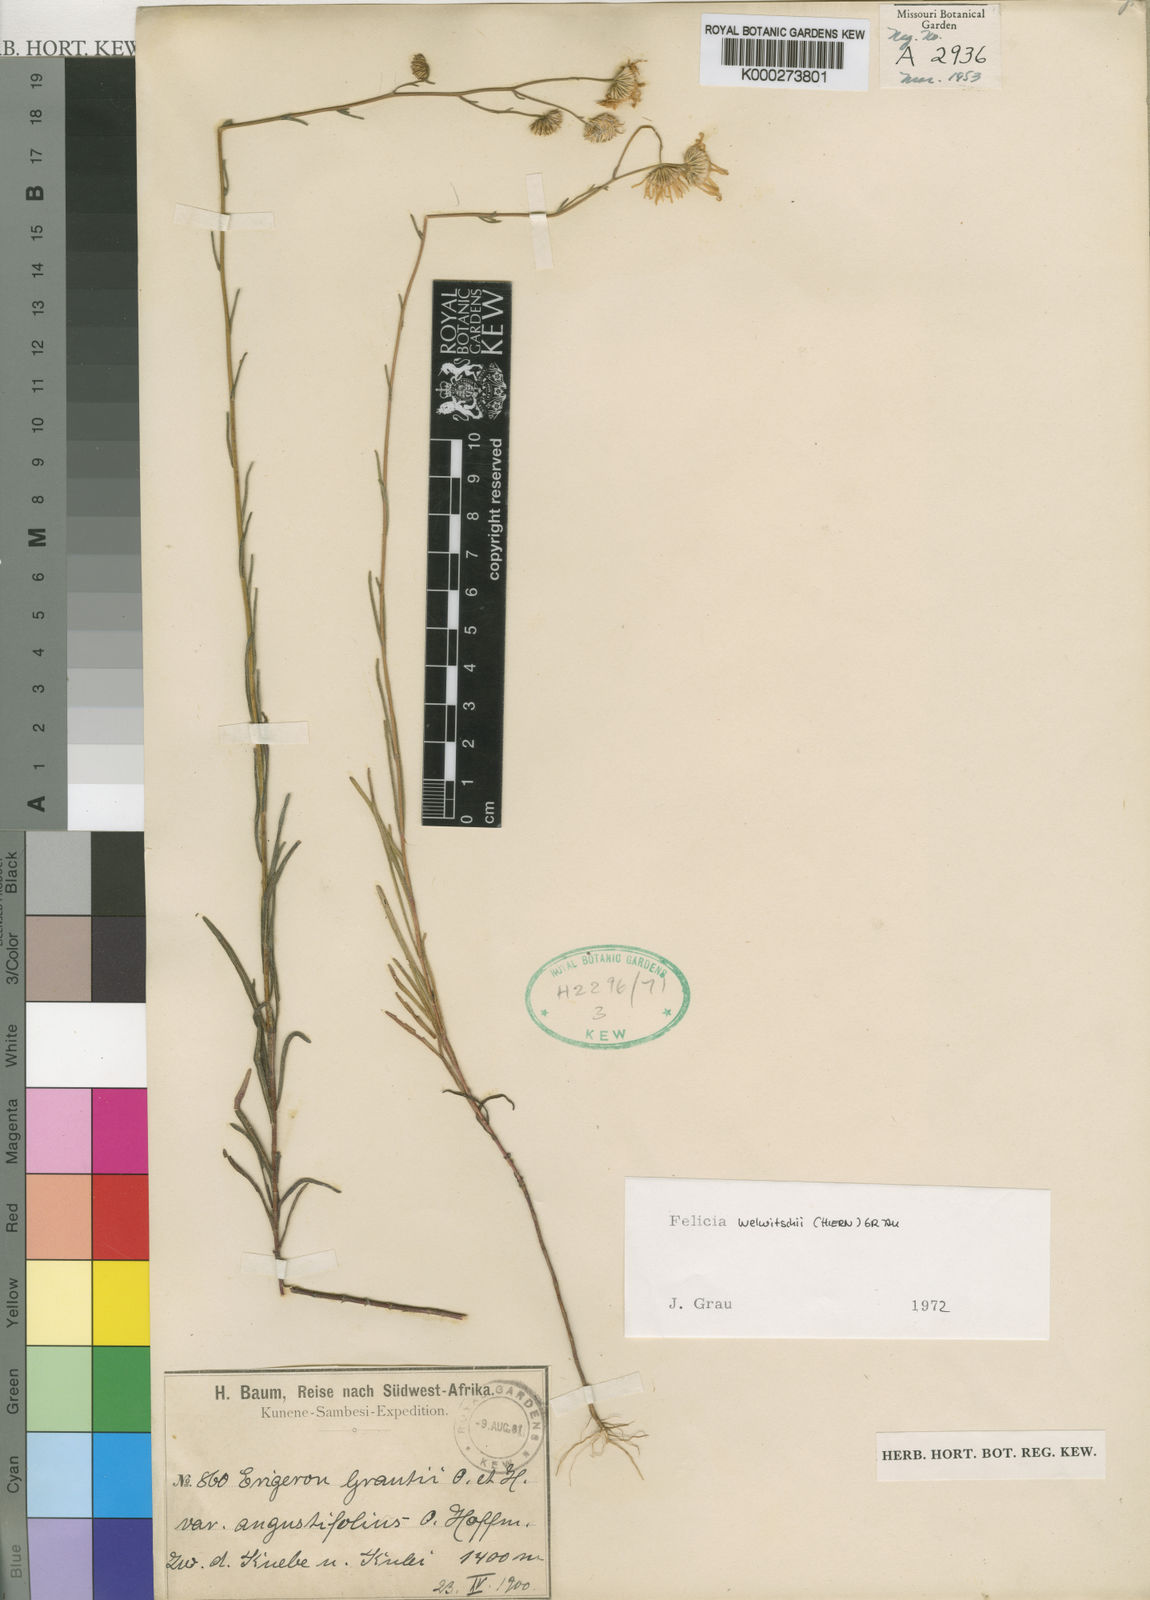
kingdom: Plantae
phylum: Tracheophyta
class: Magnoliopsida
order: Asterales
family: Asteraceae
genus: Felicia
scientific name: Felicia grantii
